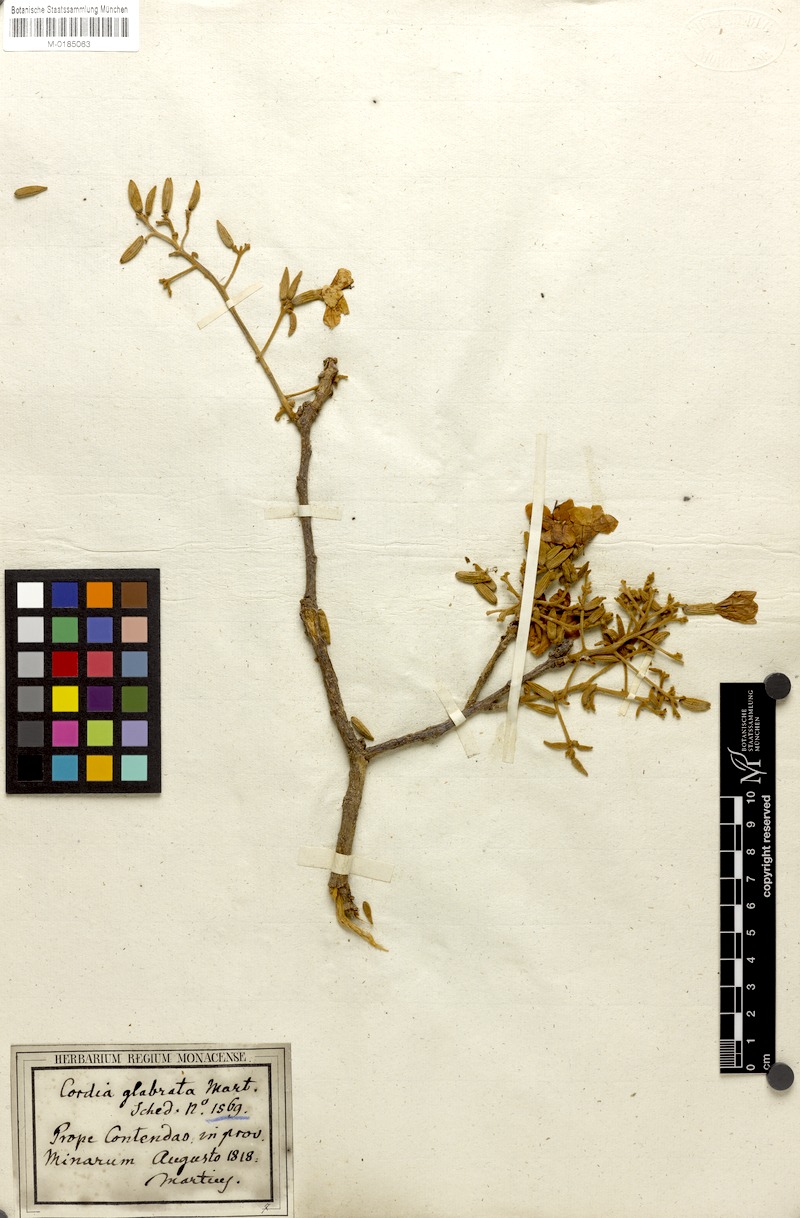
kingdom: Plantae
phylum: Tracheophyta
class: Magnoliopsida
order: Boraginales
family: Cordiaceae
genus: Cordia
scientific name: Cordia glabrata
